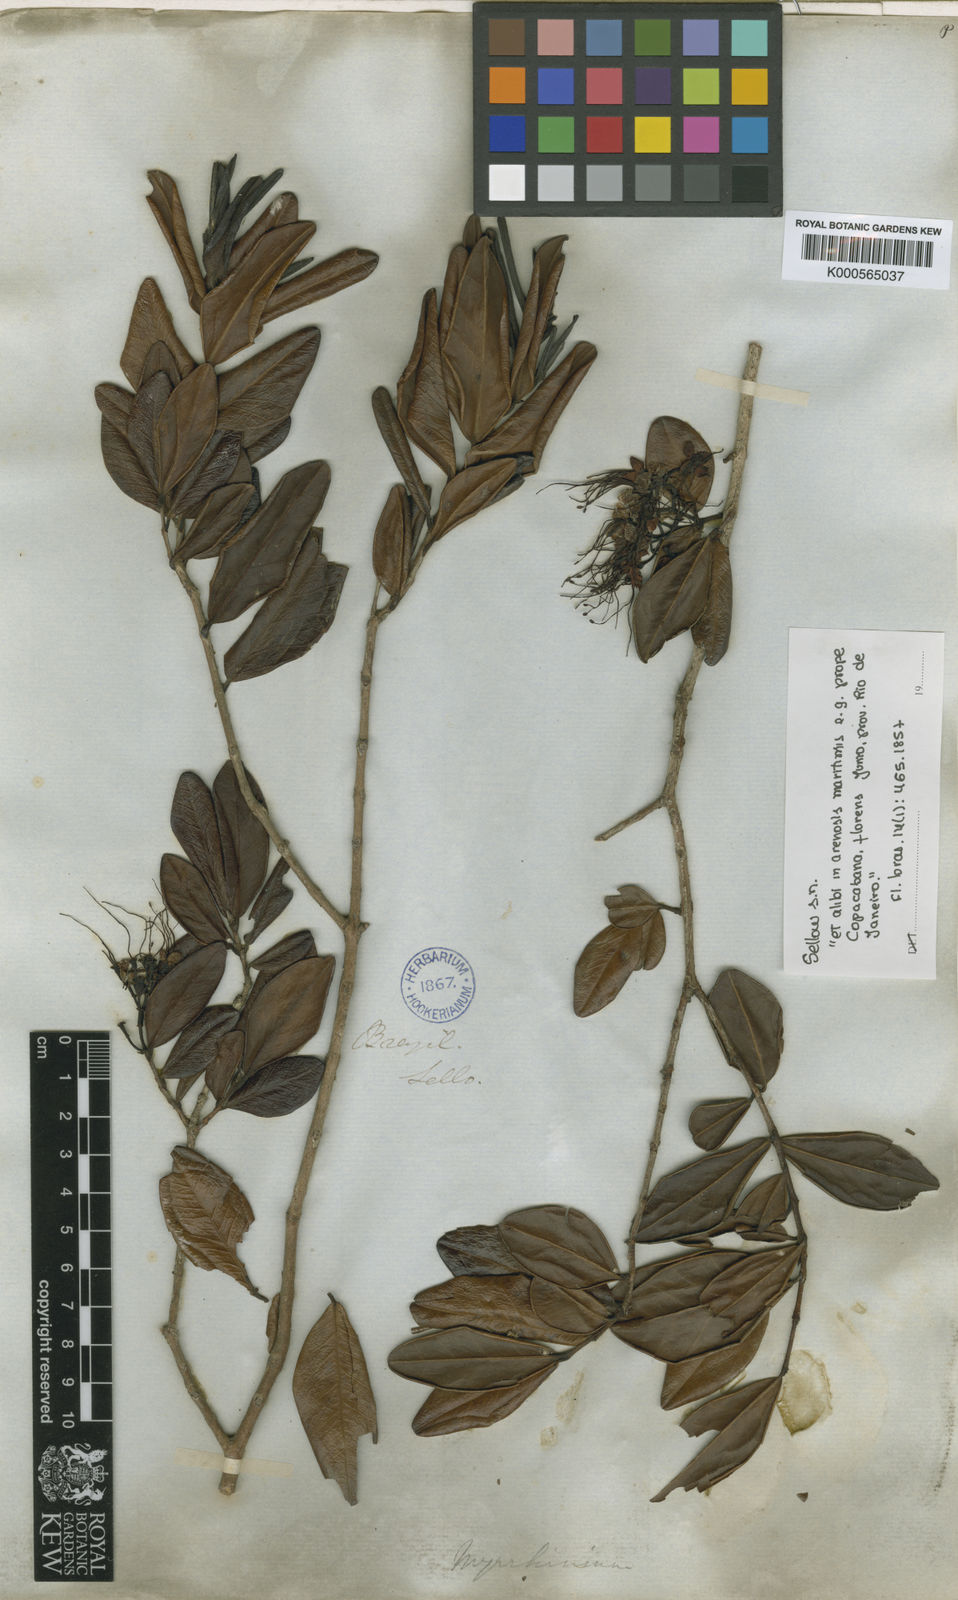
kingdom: Plantae
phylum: Tracheophyta
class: Magnoliopsida
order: Myrtales
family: Myrtaceae
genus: Myrrhinium
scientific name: Myrrhinium atropurpureum
